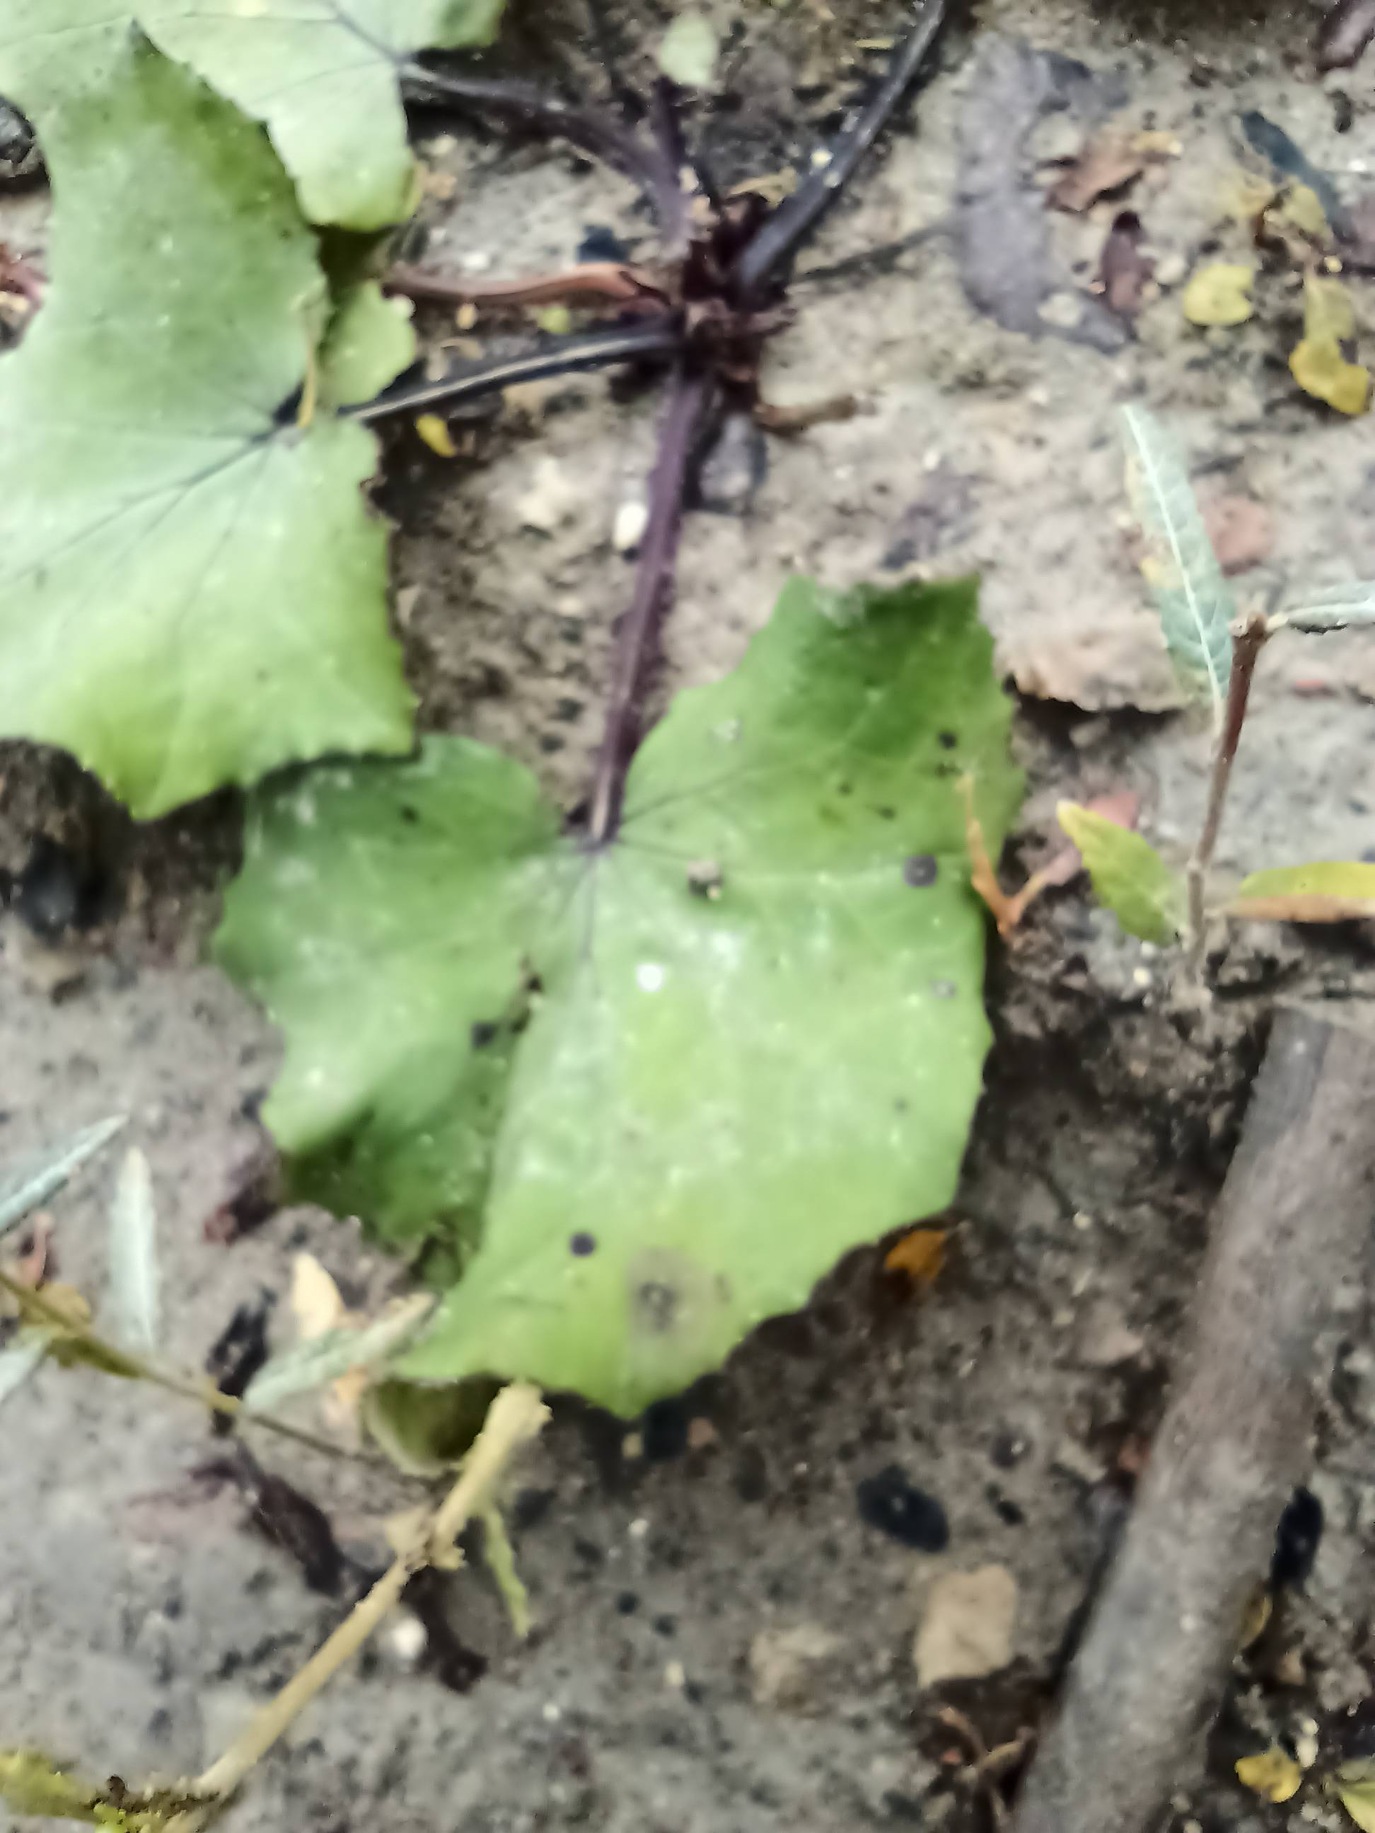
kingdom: Plantae
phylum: Tracheophyta
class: Magnoliopsida
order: Asterales
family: Asteraceae
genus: Tussilago
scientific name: Tussilago farfara
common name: Følfod
